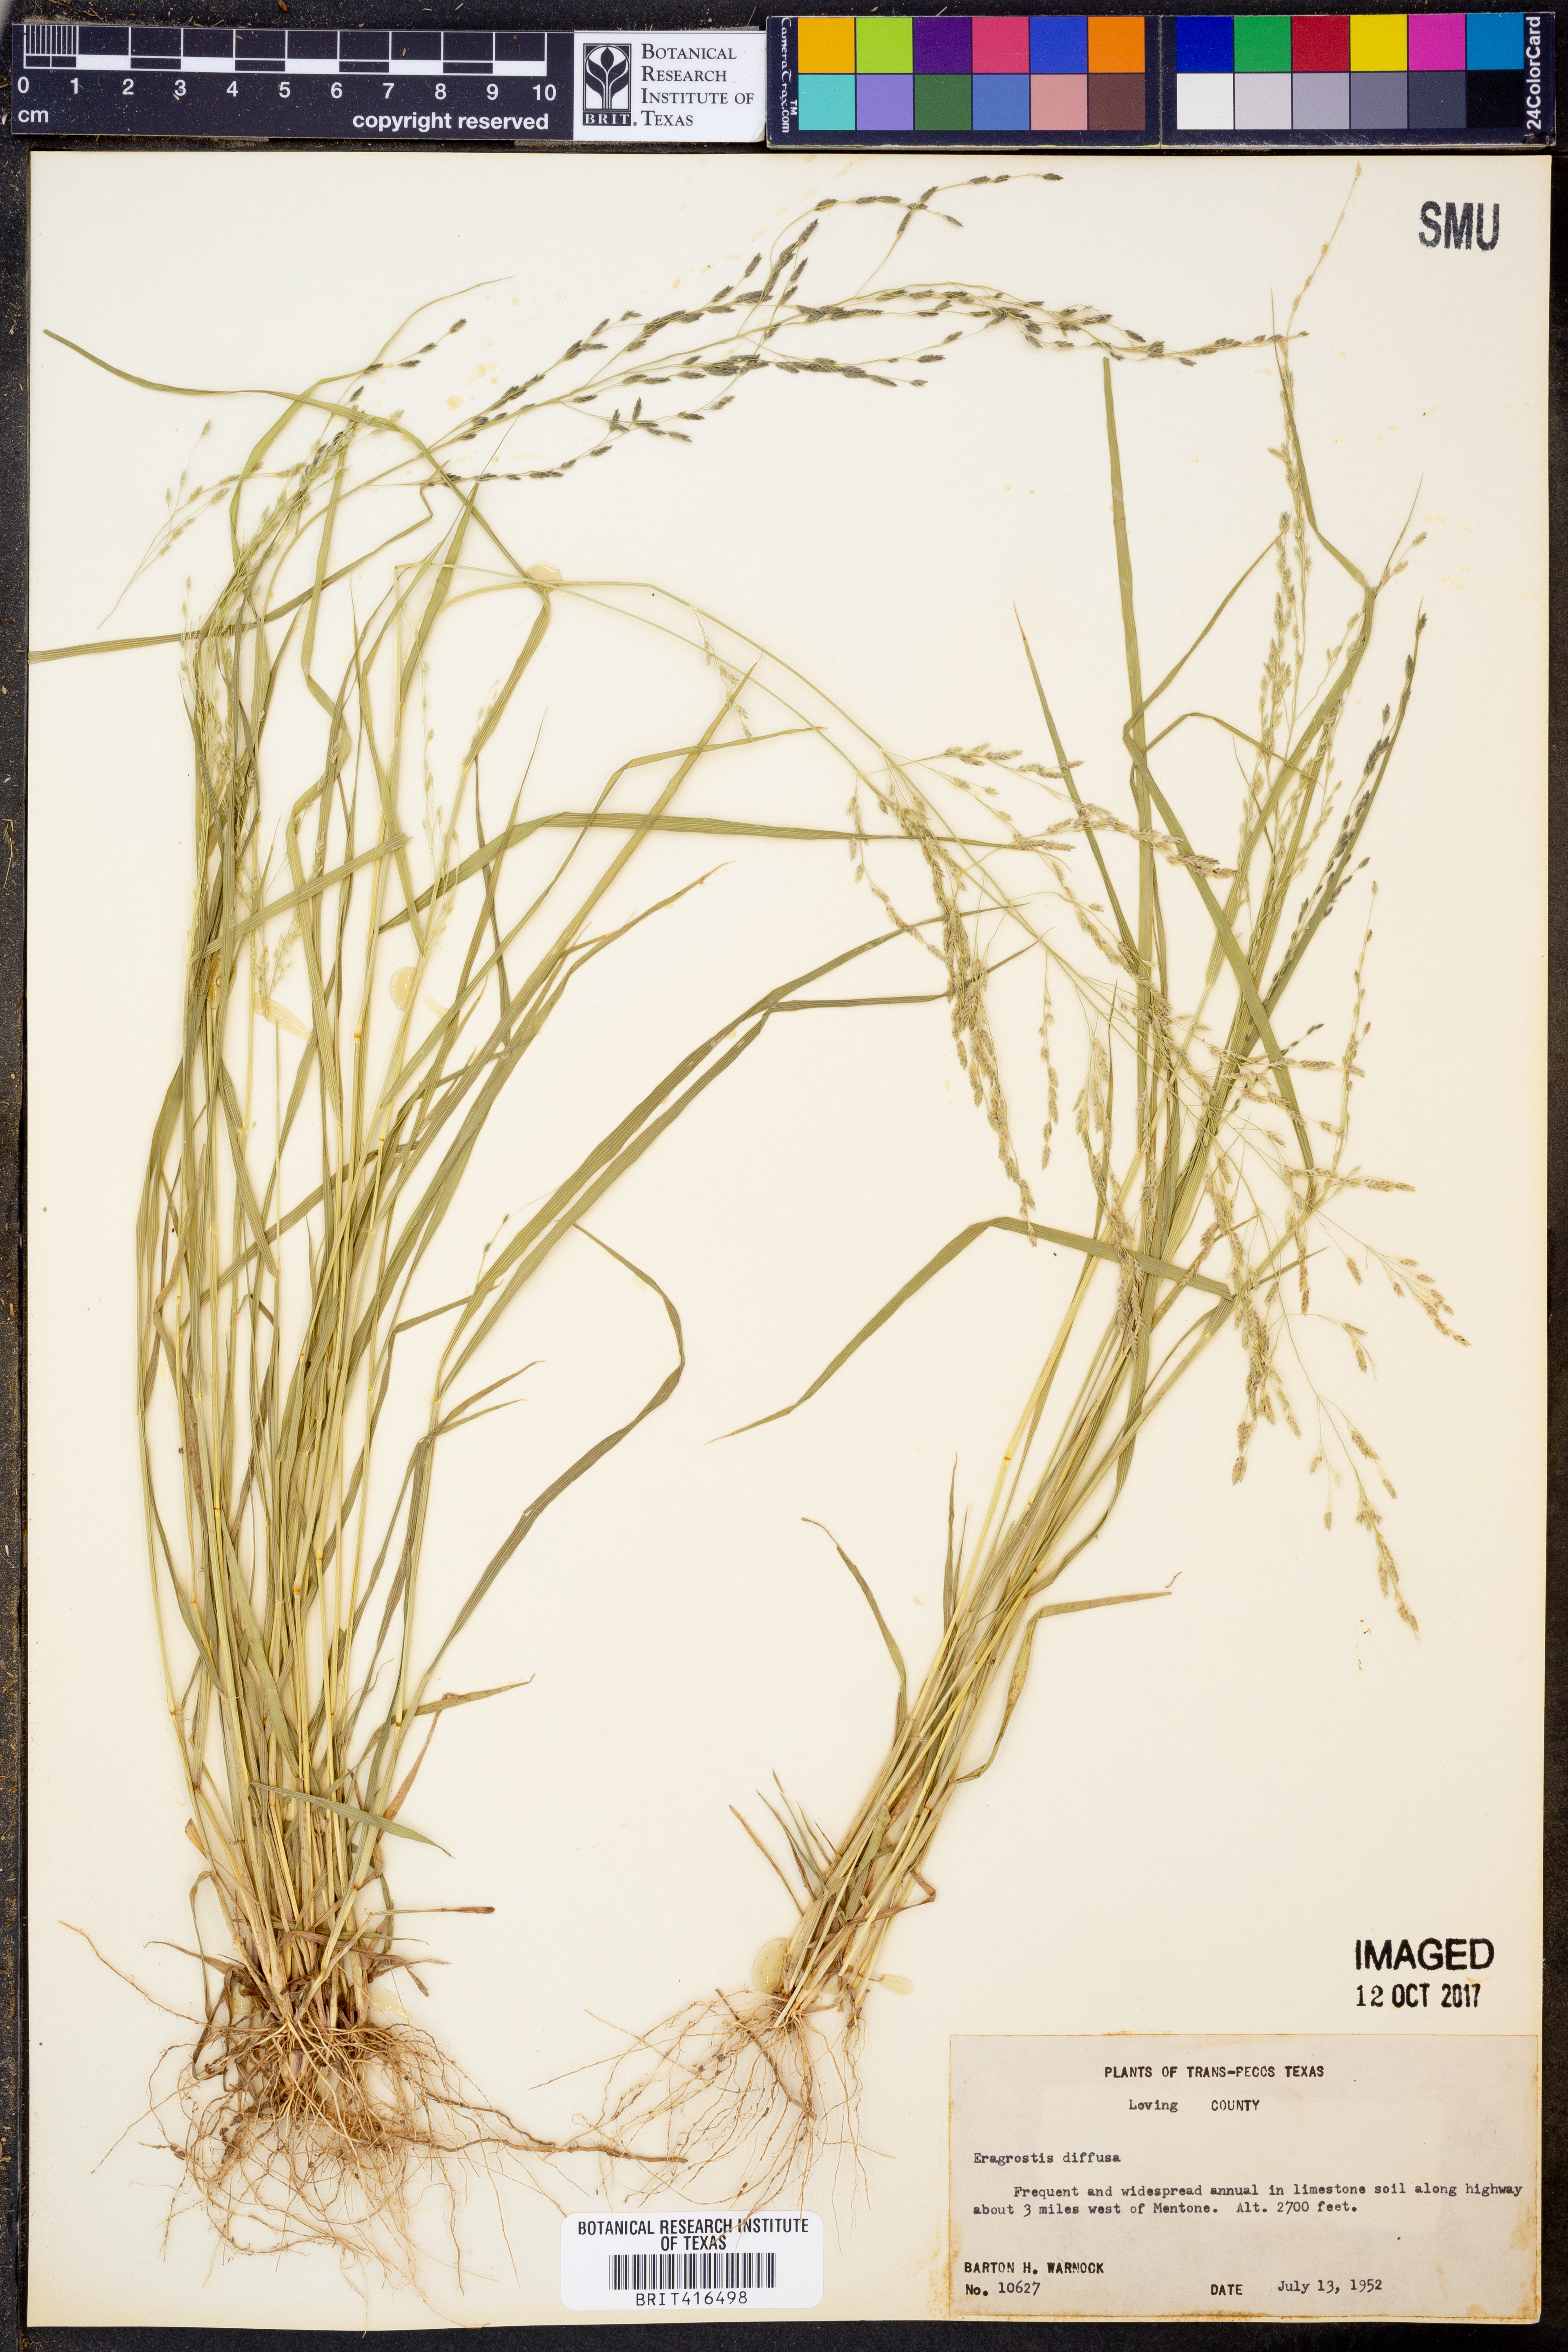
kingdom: Plantae
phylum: Tracheophyta
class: Liliopsida
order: Poales
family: Poaceae
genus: Eragrostis
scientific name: Eragrostis pectinacea
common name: Tufted lovegrass
